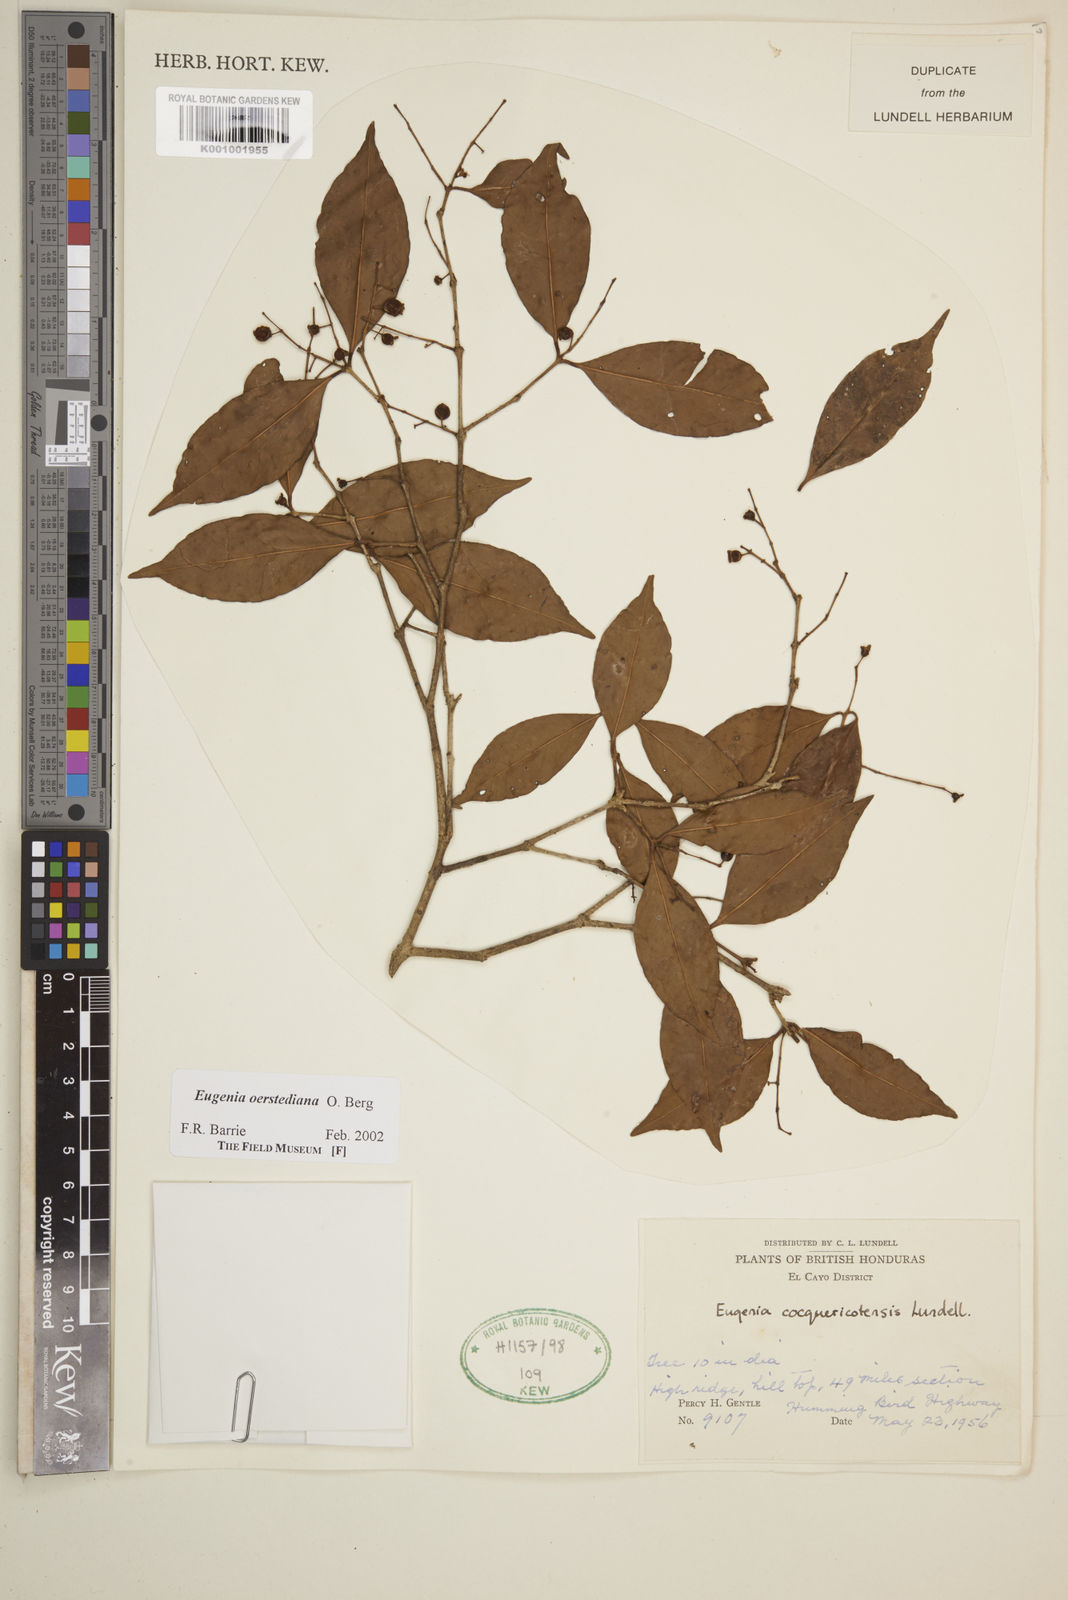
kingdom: Plantae
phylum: Tracheophyta
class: Magnoliopsida
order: Myrtales
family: Myrtaceae
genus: Eugenia
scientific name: Eugenia oerstediana
